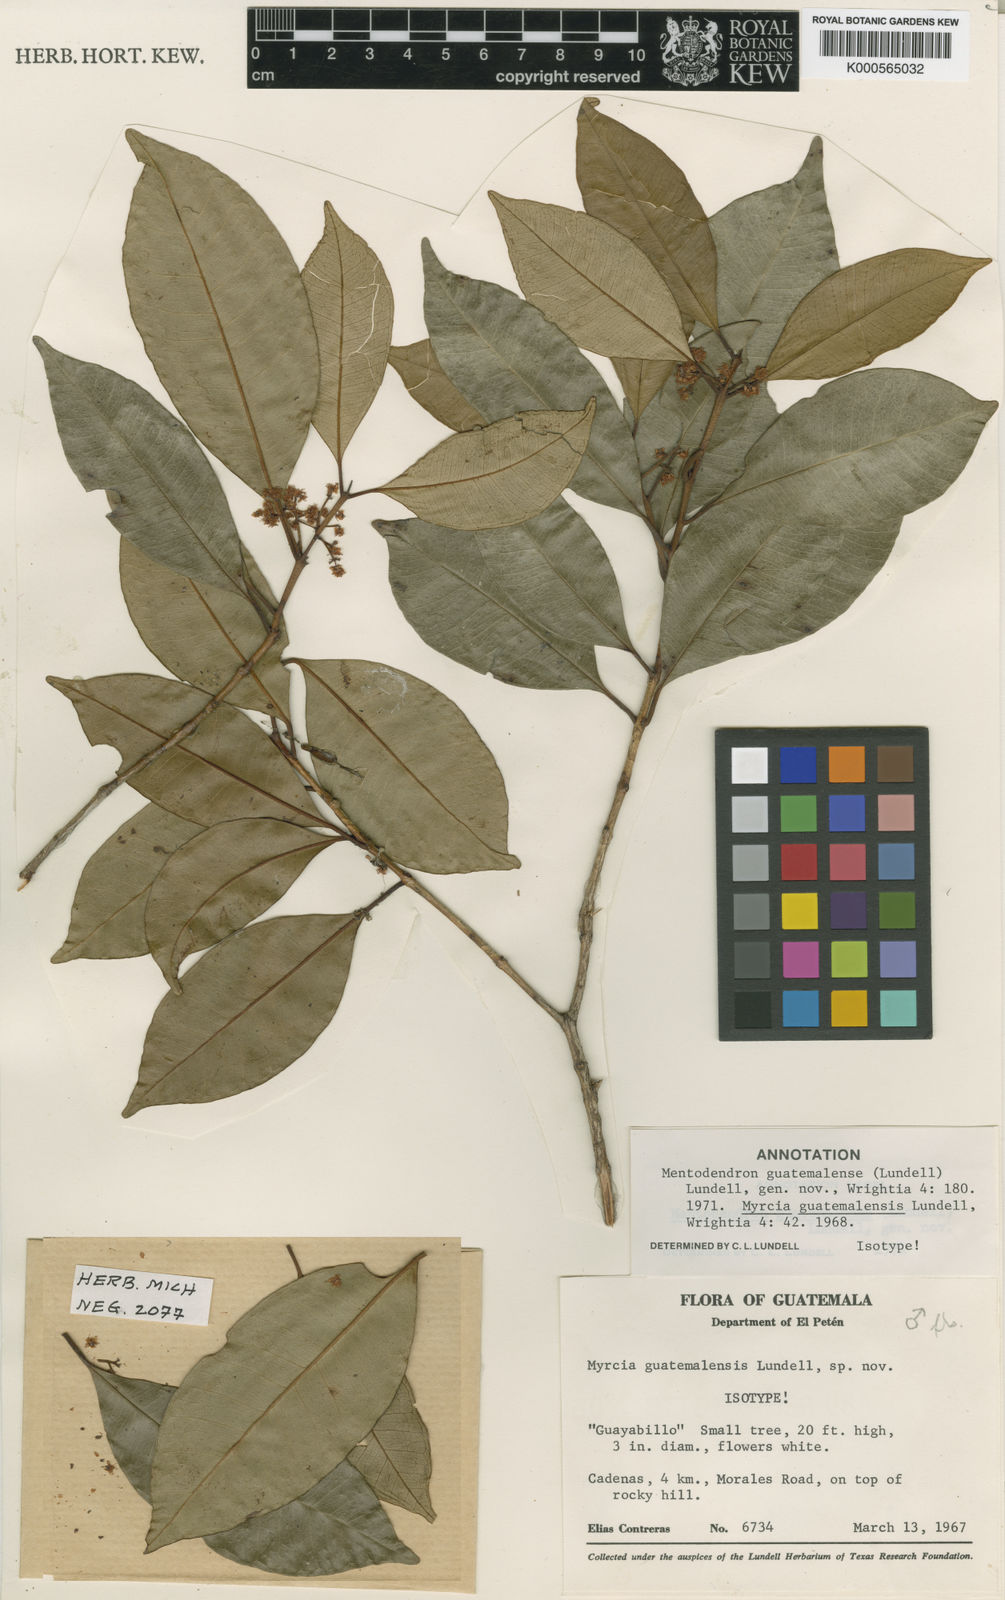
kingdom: Plantae
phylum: Tracheophyta
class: Magnoliopsida
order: Myrtales
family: Myrtaceae
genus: Pimenta
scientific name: Pimenta guatemalensis
